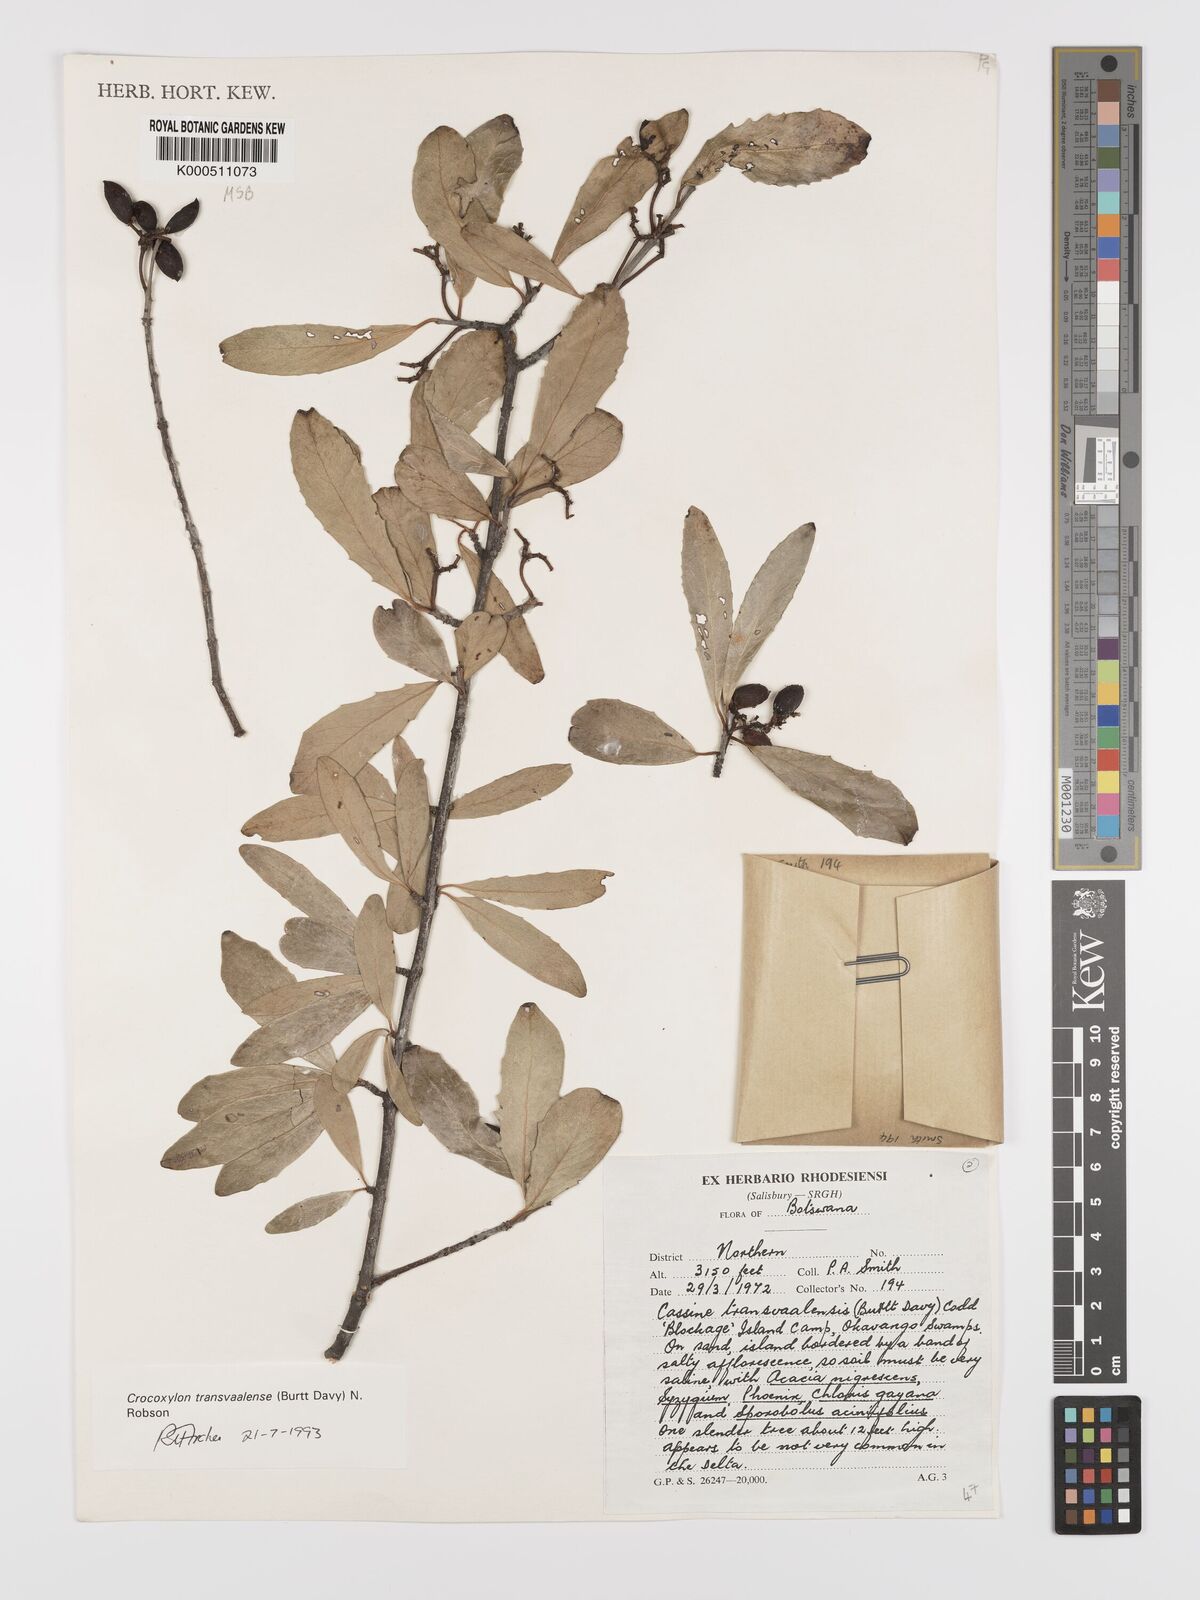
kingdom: Plantae
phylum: Tracheophyta
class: Magnoliopsida
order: Celastrales
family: Celastraceae
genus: Elaeodendron
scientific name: Elaeodendron transvaalense
